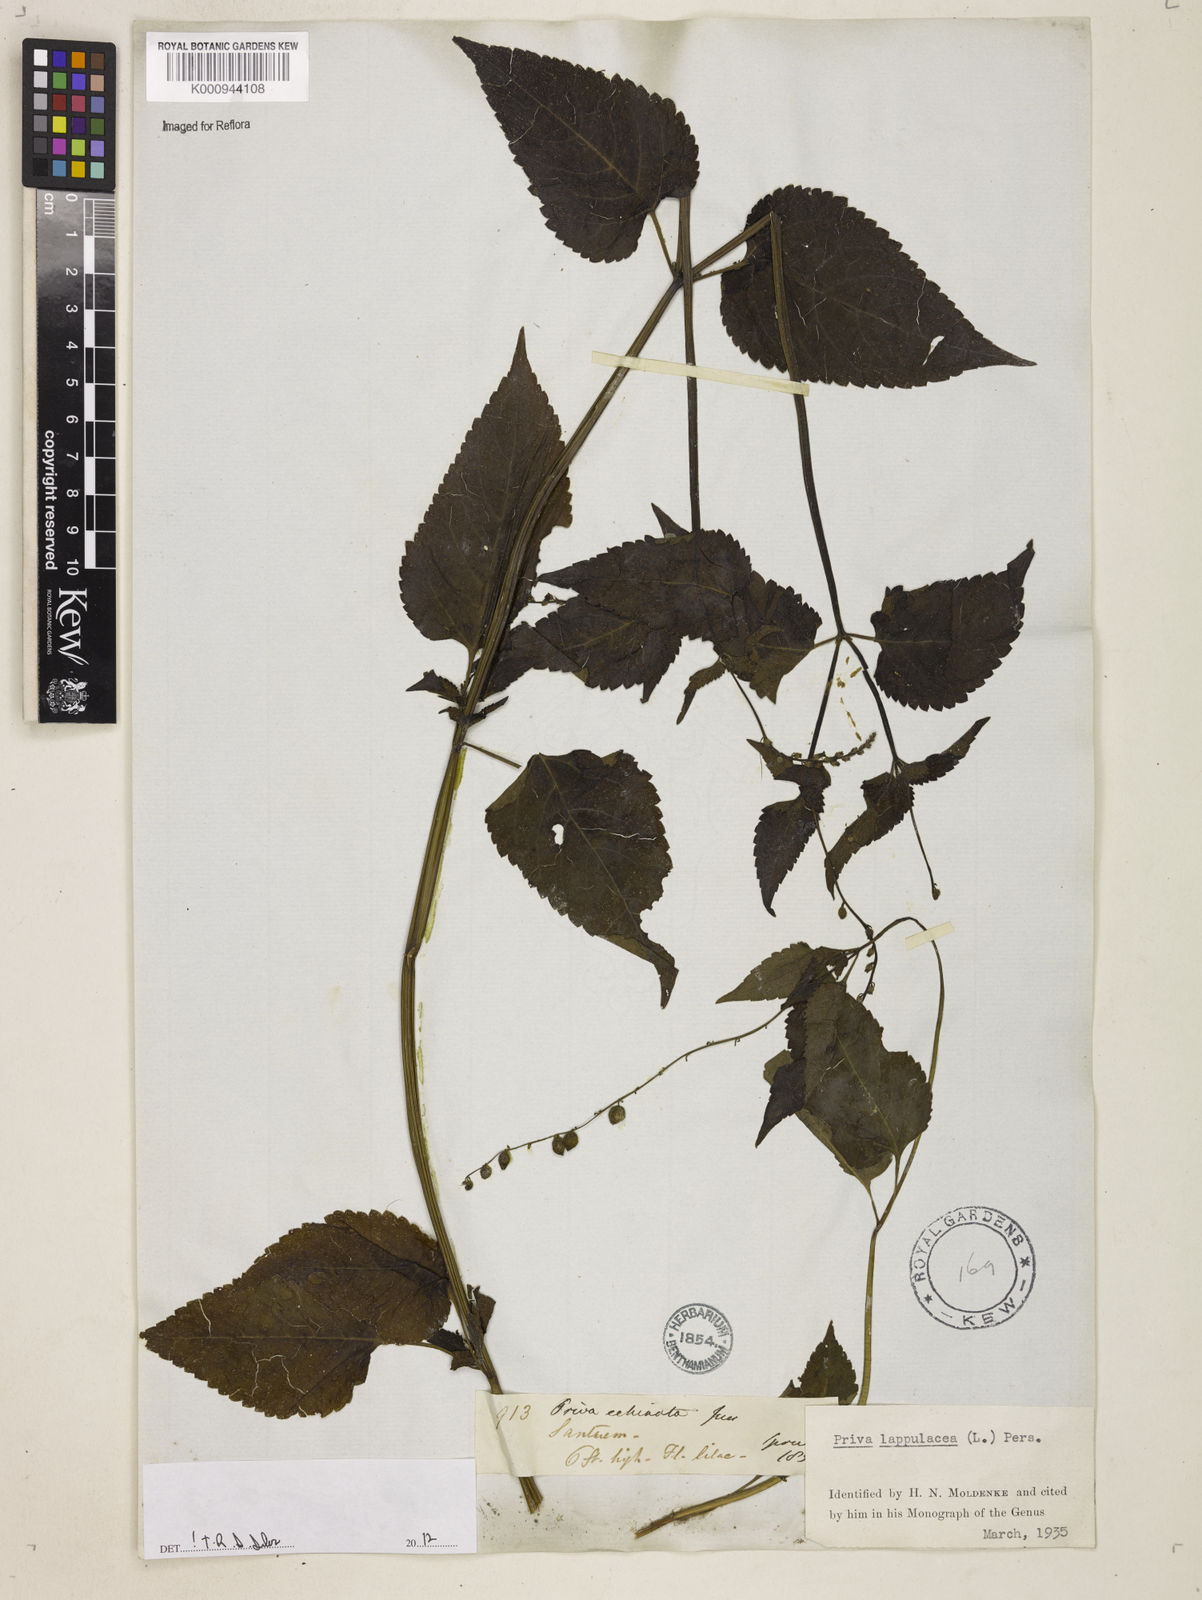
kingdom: Plantae
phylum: Tracheophyta
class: Magnoliopsida
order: Lamiales
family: Verbenaceae
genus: Priva
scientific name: Priva lappulacea
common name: Fasten-'pon-coat
